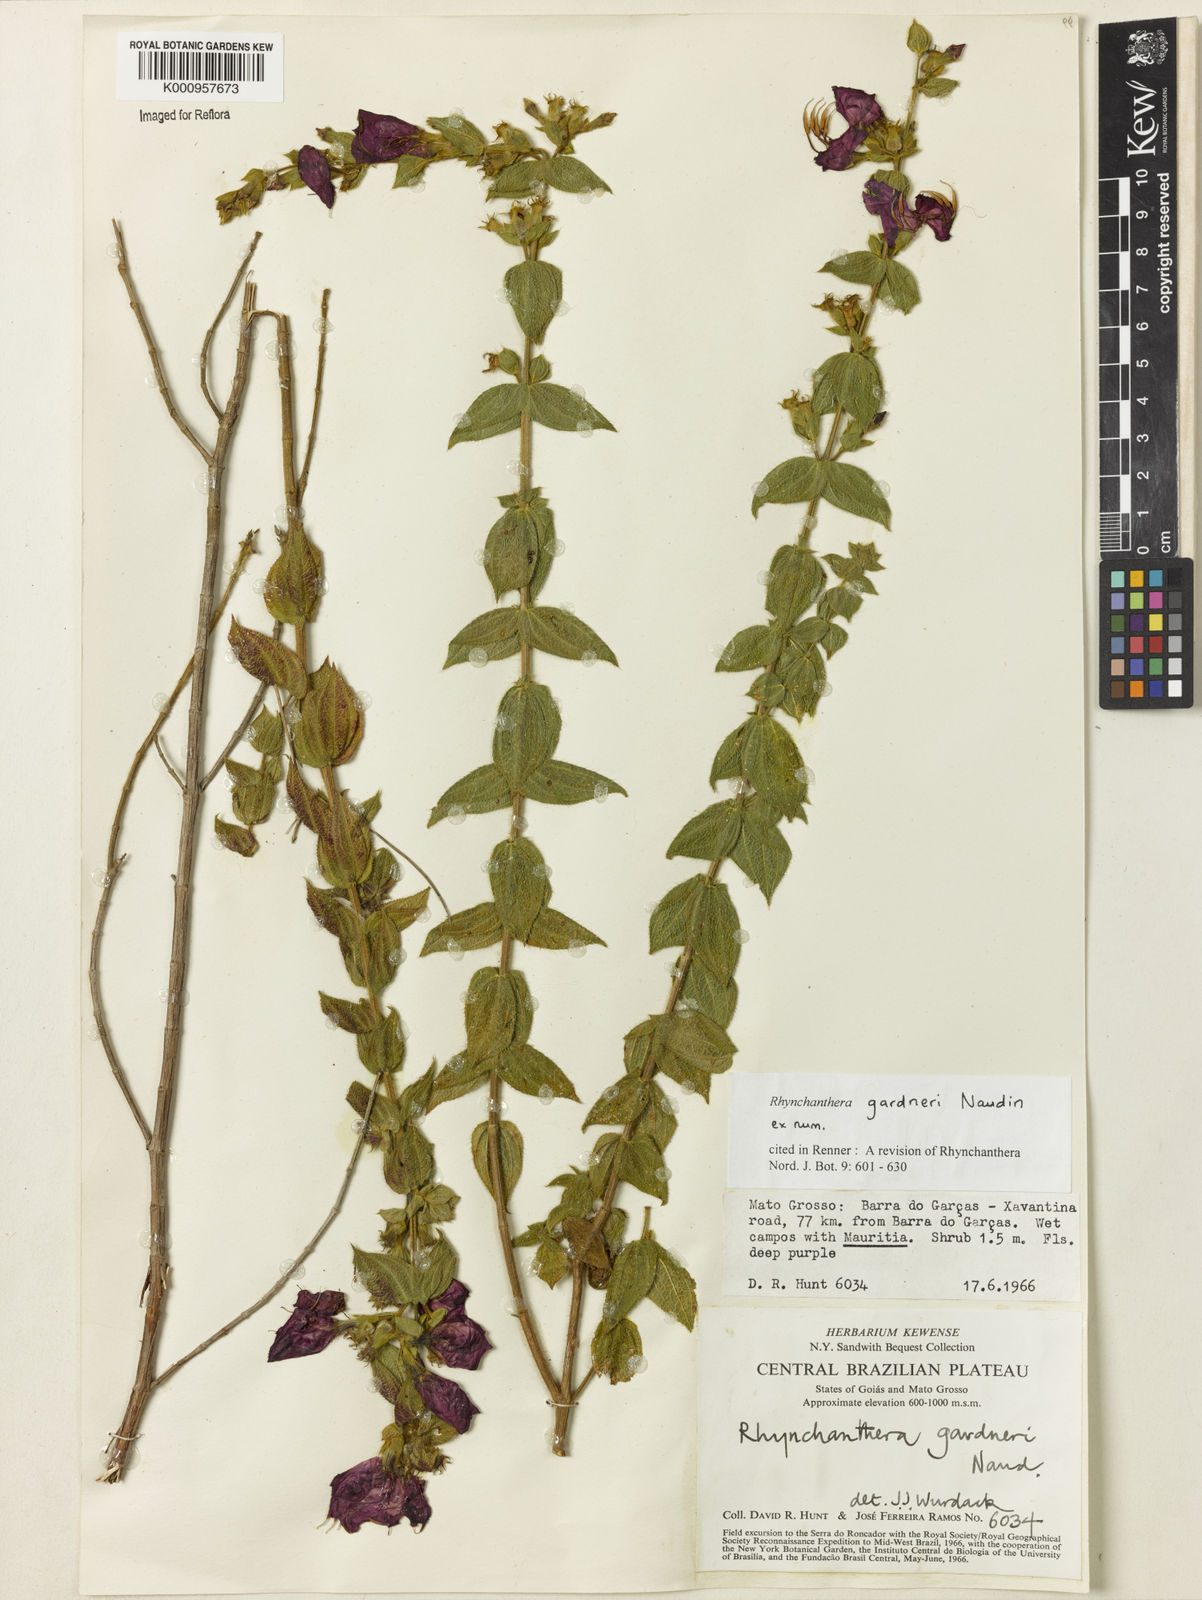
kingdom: Plantae
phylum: Tracheophyta
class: Magnoliopsida
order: Myrtales
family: Melastomataceae
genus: Rhynchanthera
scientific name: Rhynchanthera gardneri
